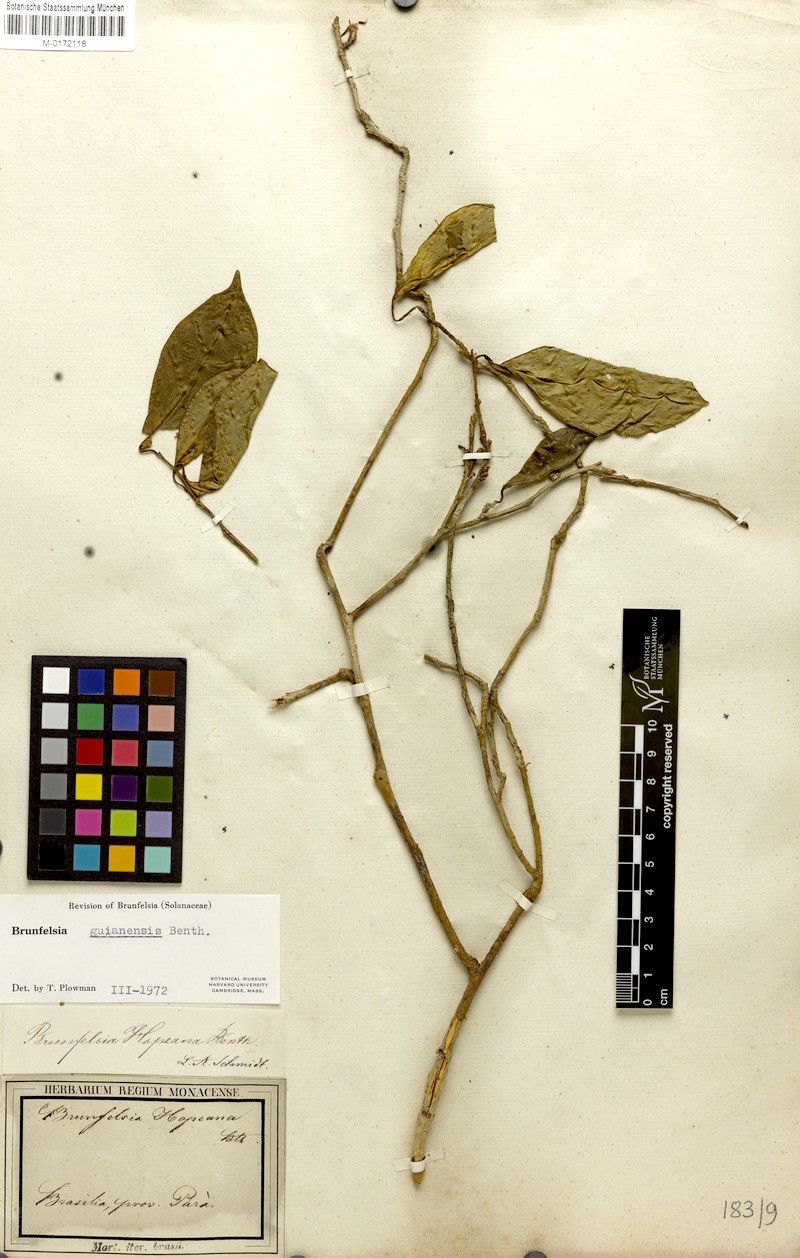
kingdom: Plantae
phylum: Tracheophyta
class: Magnoliopsida
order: Solanales
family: Solanaceae
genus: Brunfelsia
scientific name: Brunfelsia guianensis
